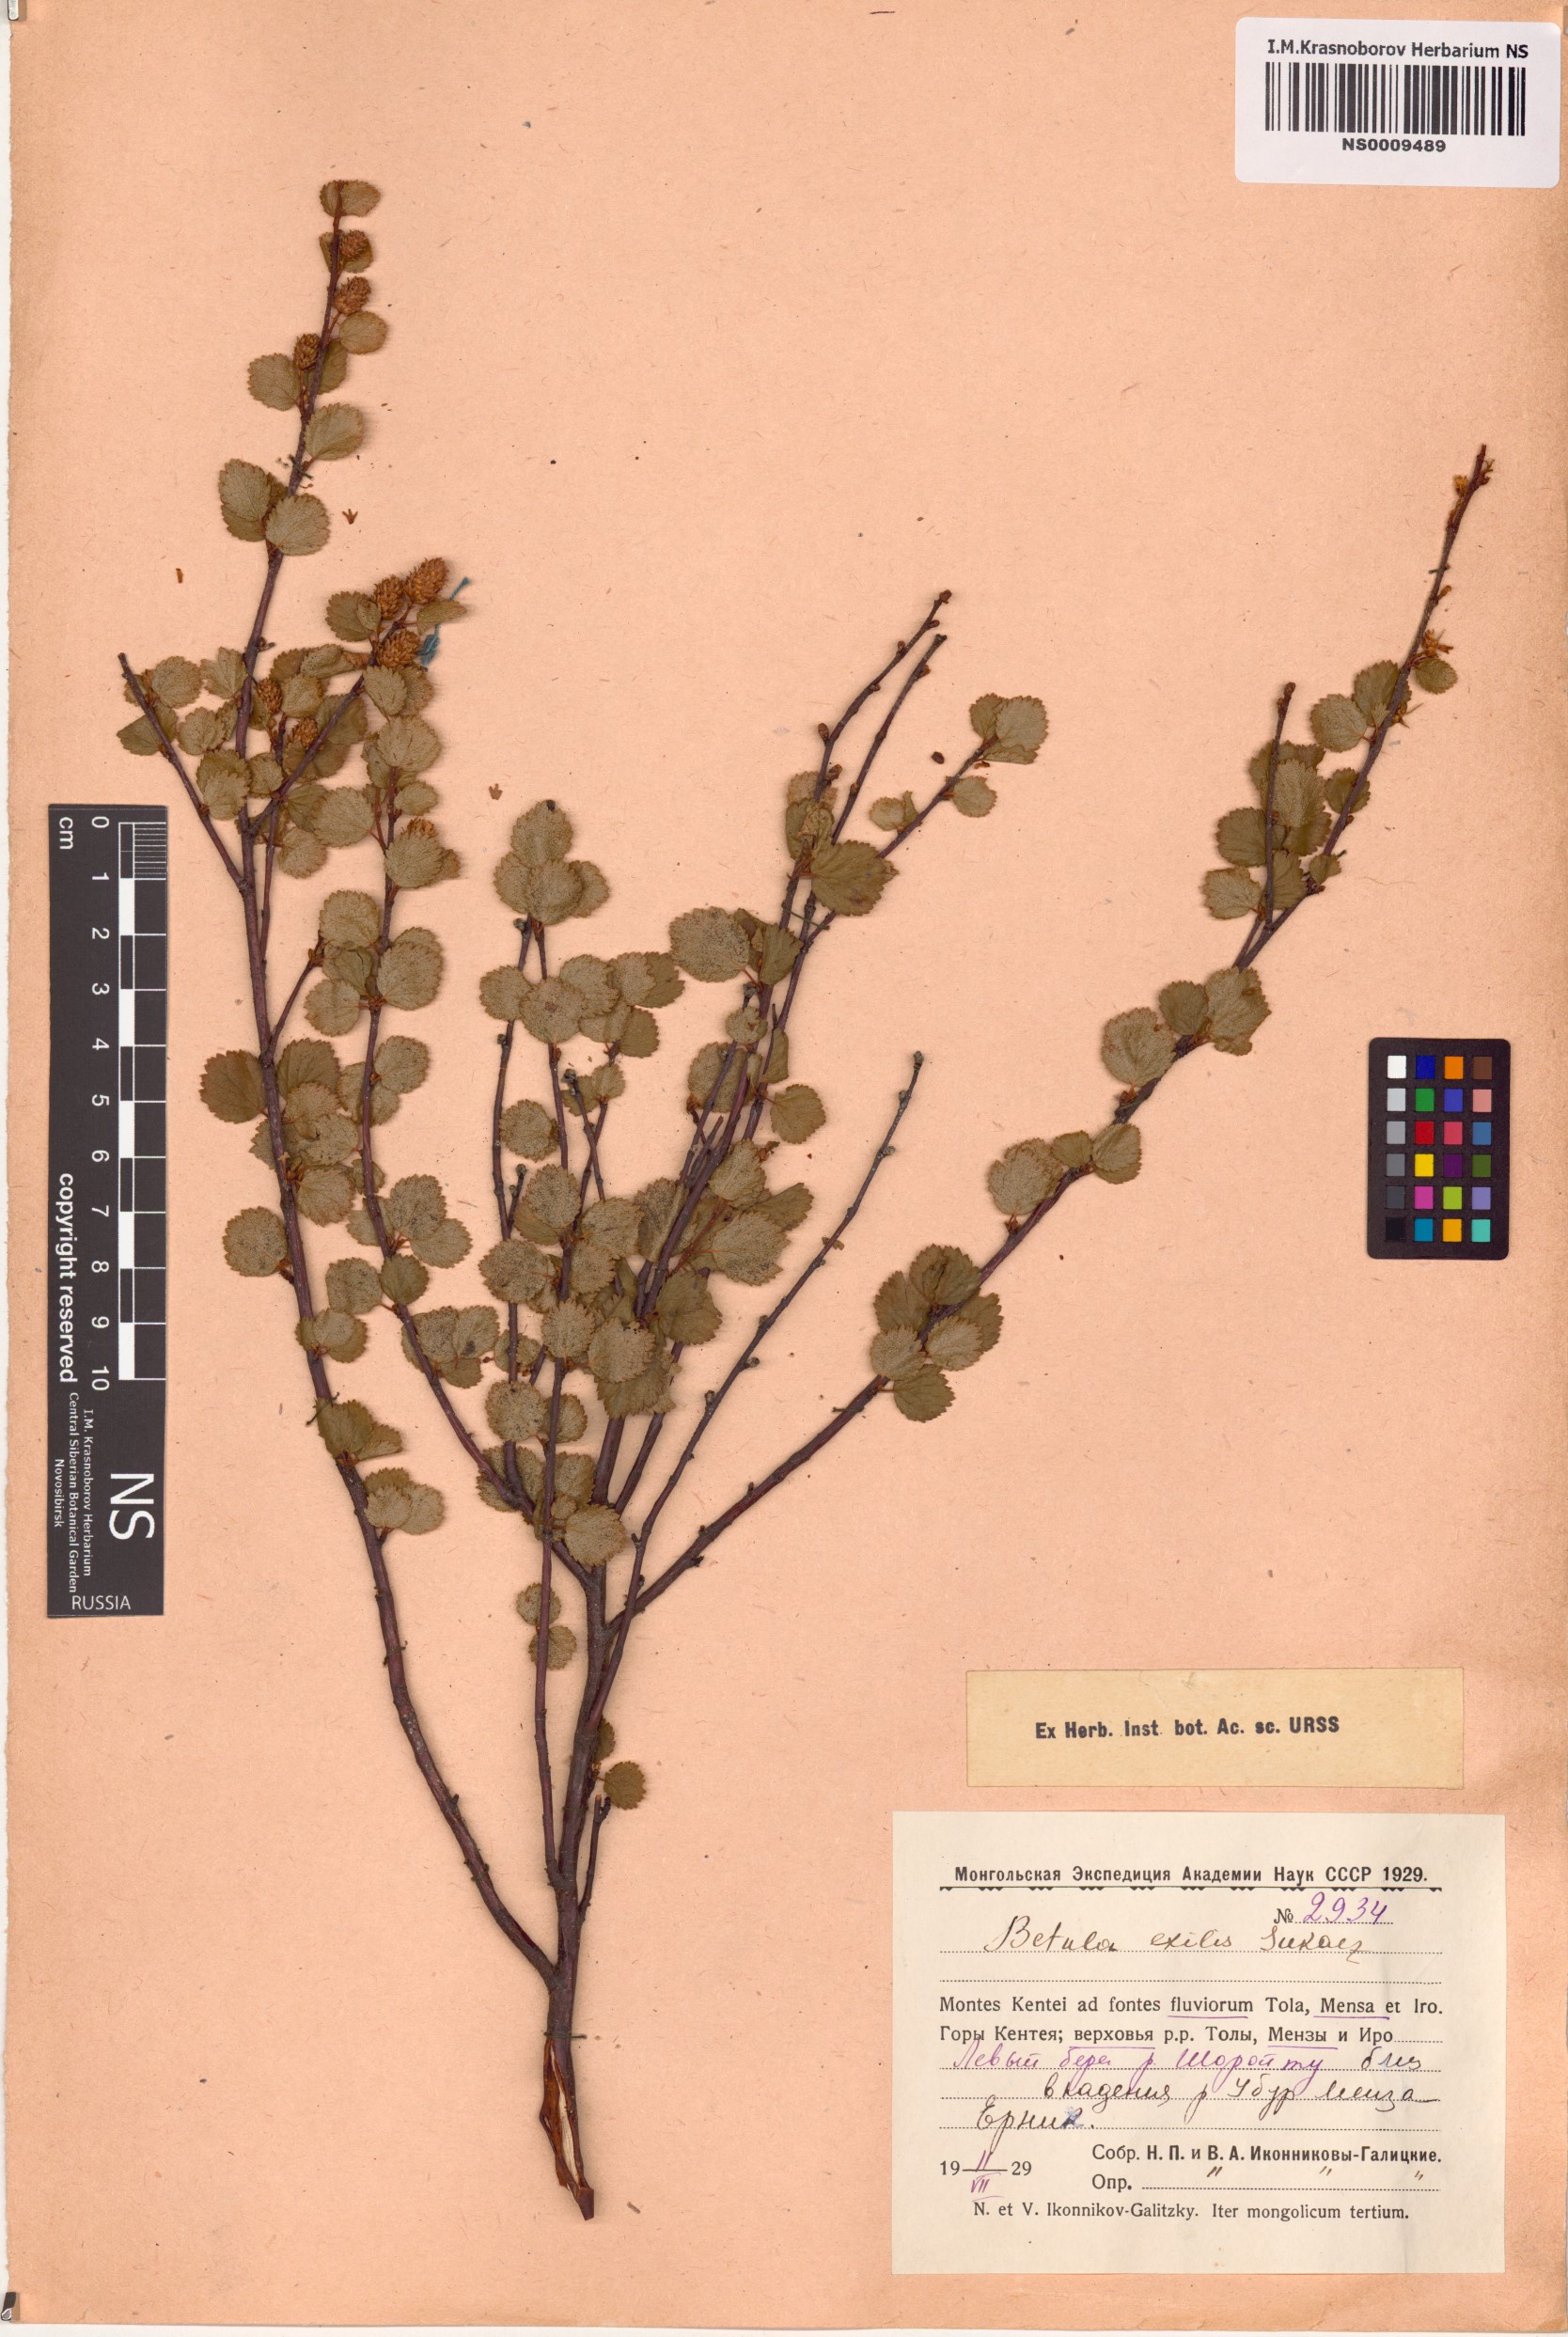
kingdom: Plantae
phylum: Tracheophyta
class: Magnoliopsida
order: Fagales
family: Betulaceae
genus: Betula
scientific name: Betula glandulosa
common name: Dwarf birch
